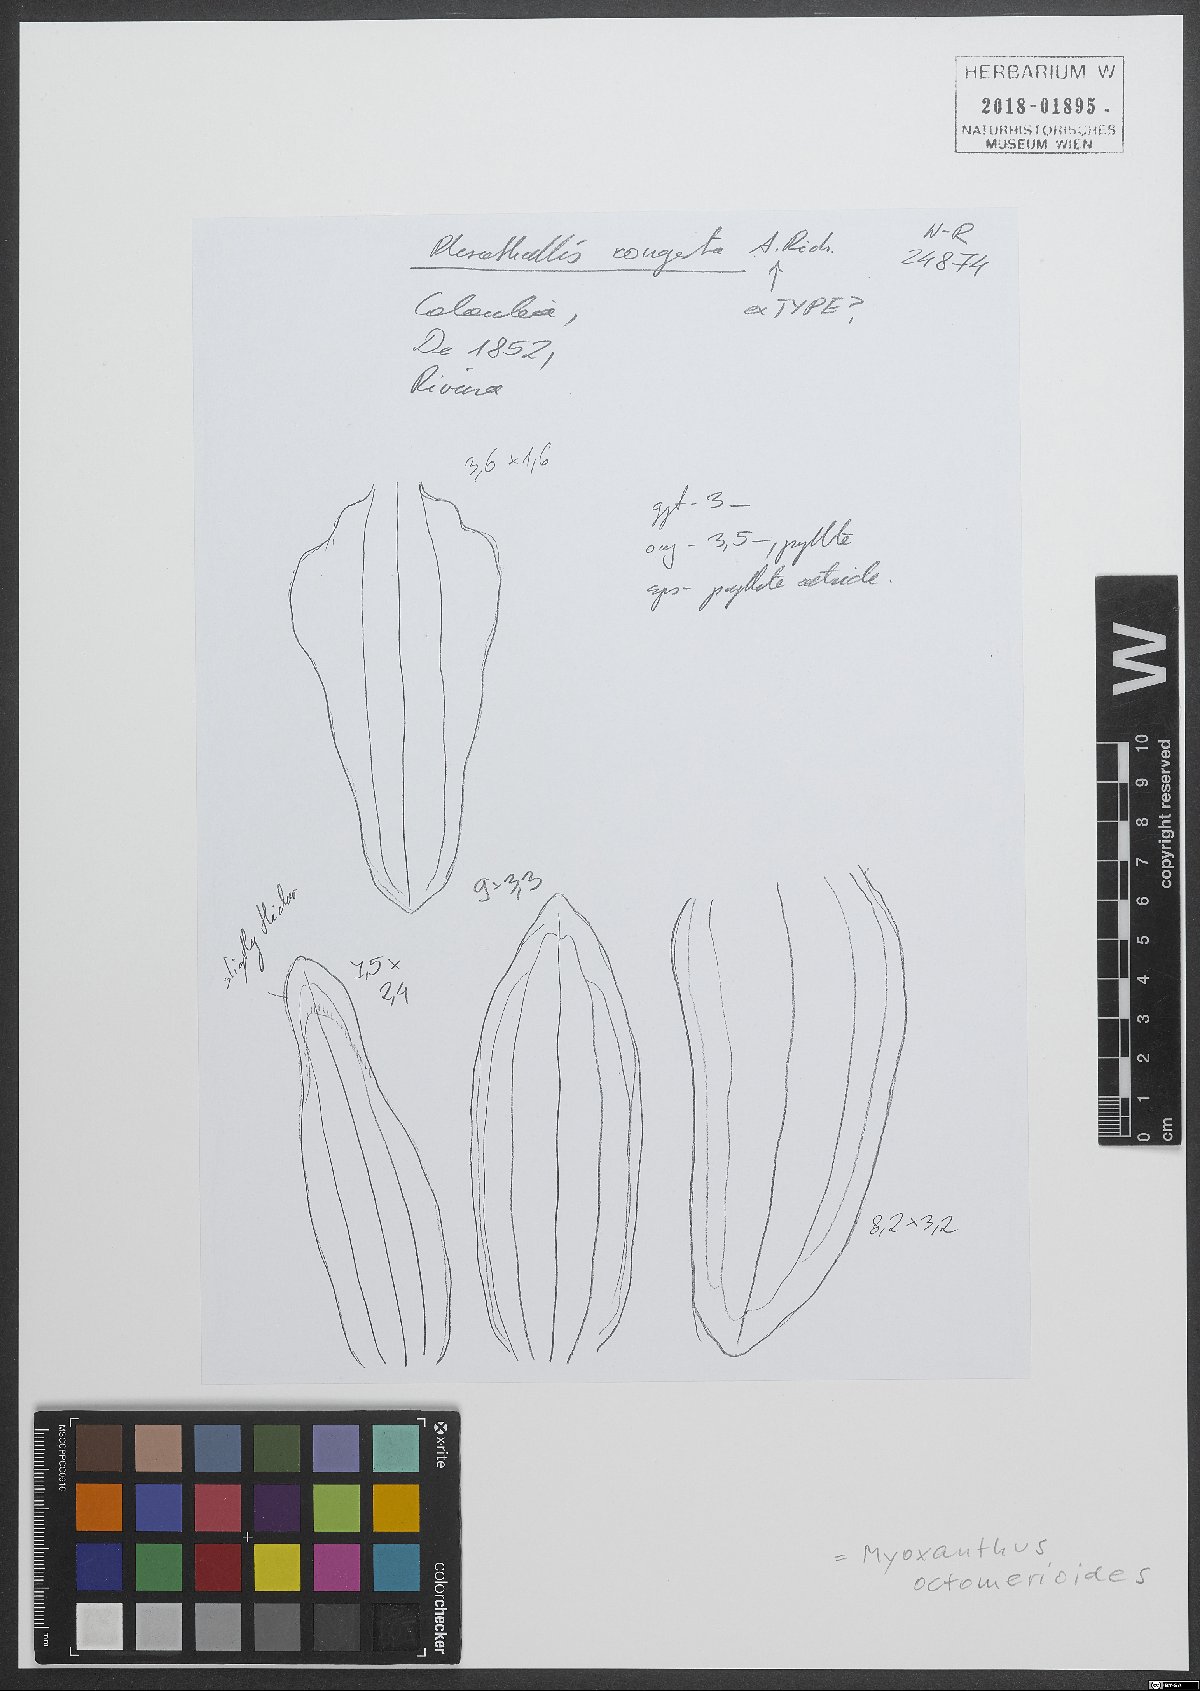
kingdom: Plantae
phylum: Tracheophyta
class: Liliopsida
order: Asparagales
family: Orchidaceae
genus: Myoxanthus
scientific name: Myoxanthus octomerioides
